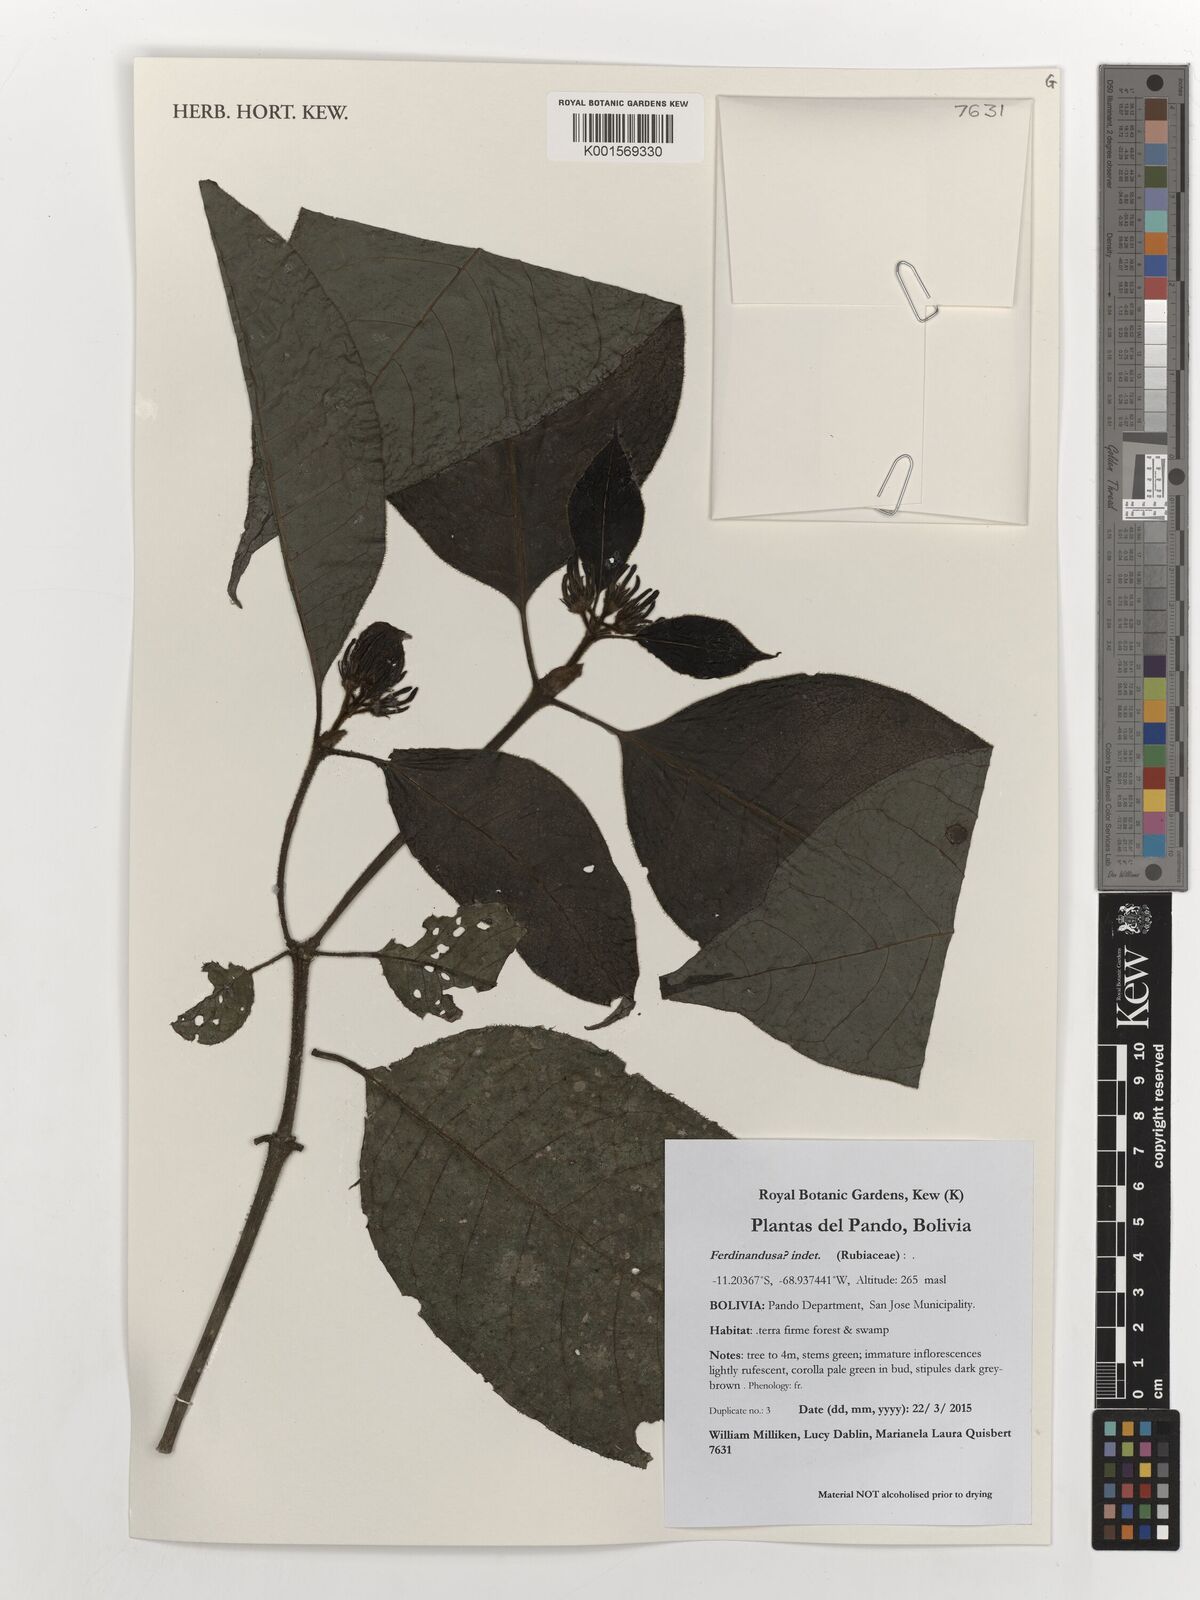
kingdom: Plantae
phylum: Tracheophyta
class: Magnoliopsida
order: Gentianales
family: Rubiaceae
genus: Ferdinandusa
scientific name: Ferdinandusa
